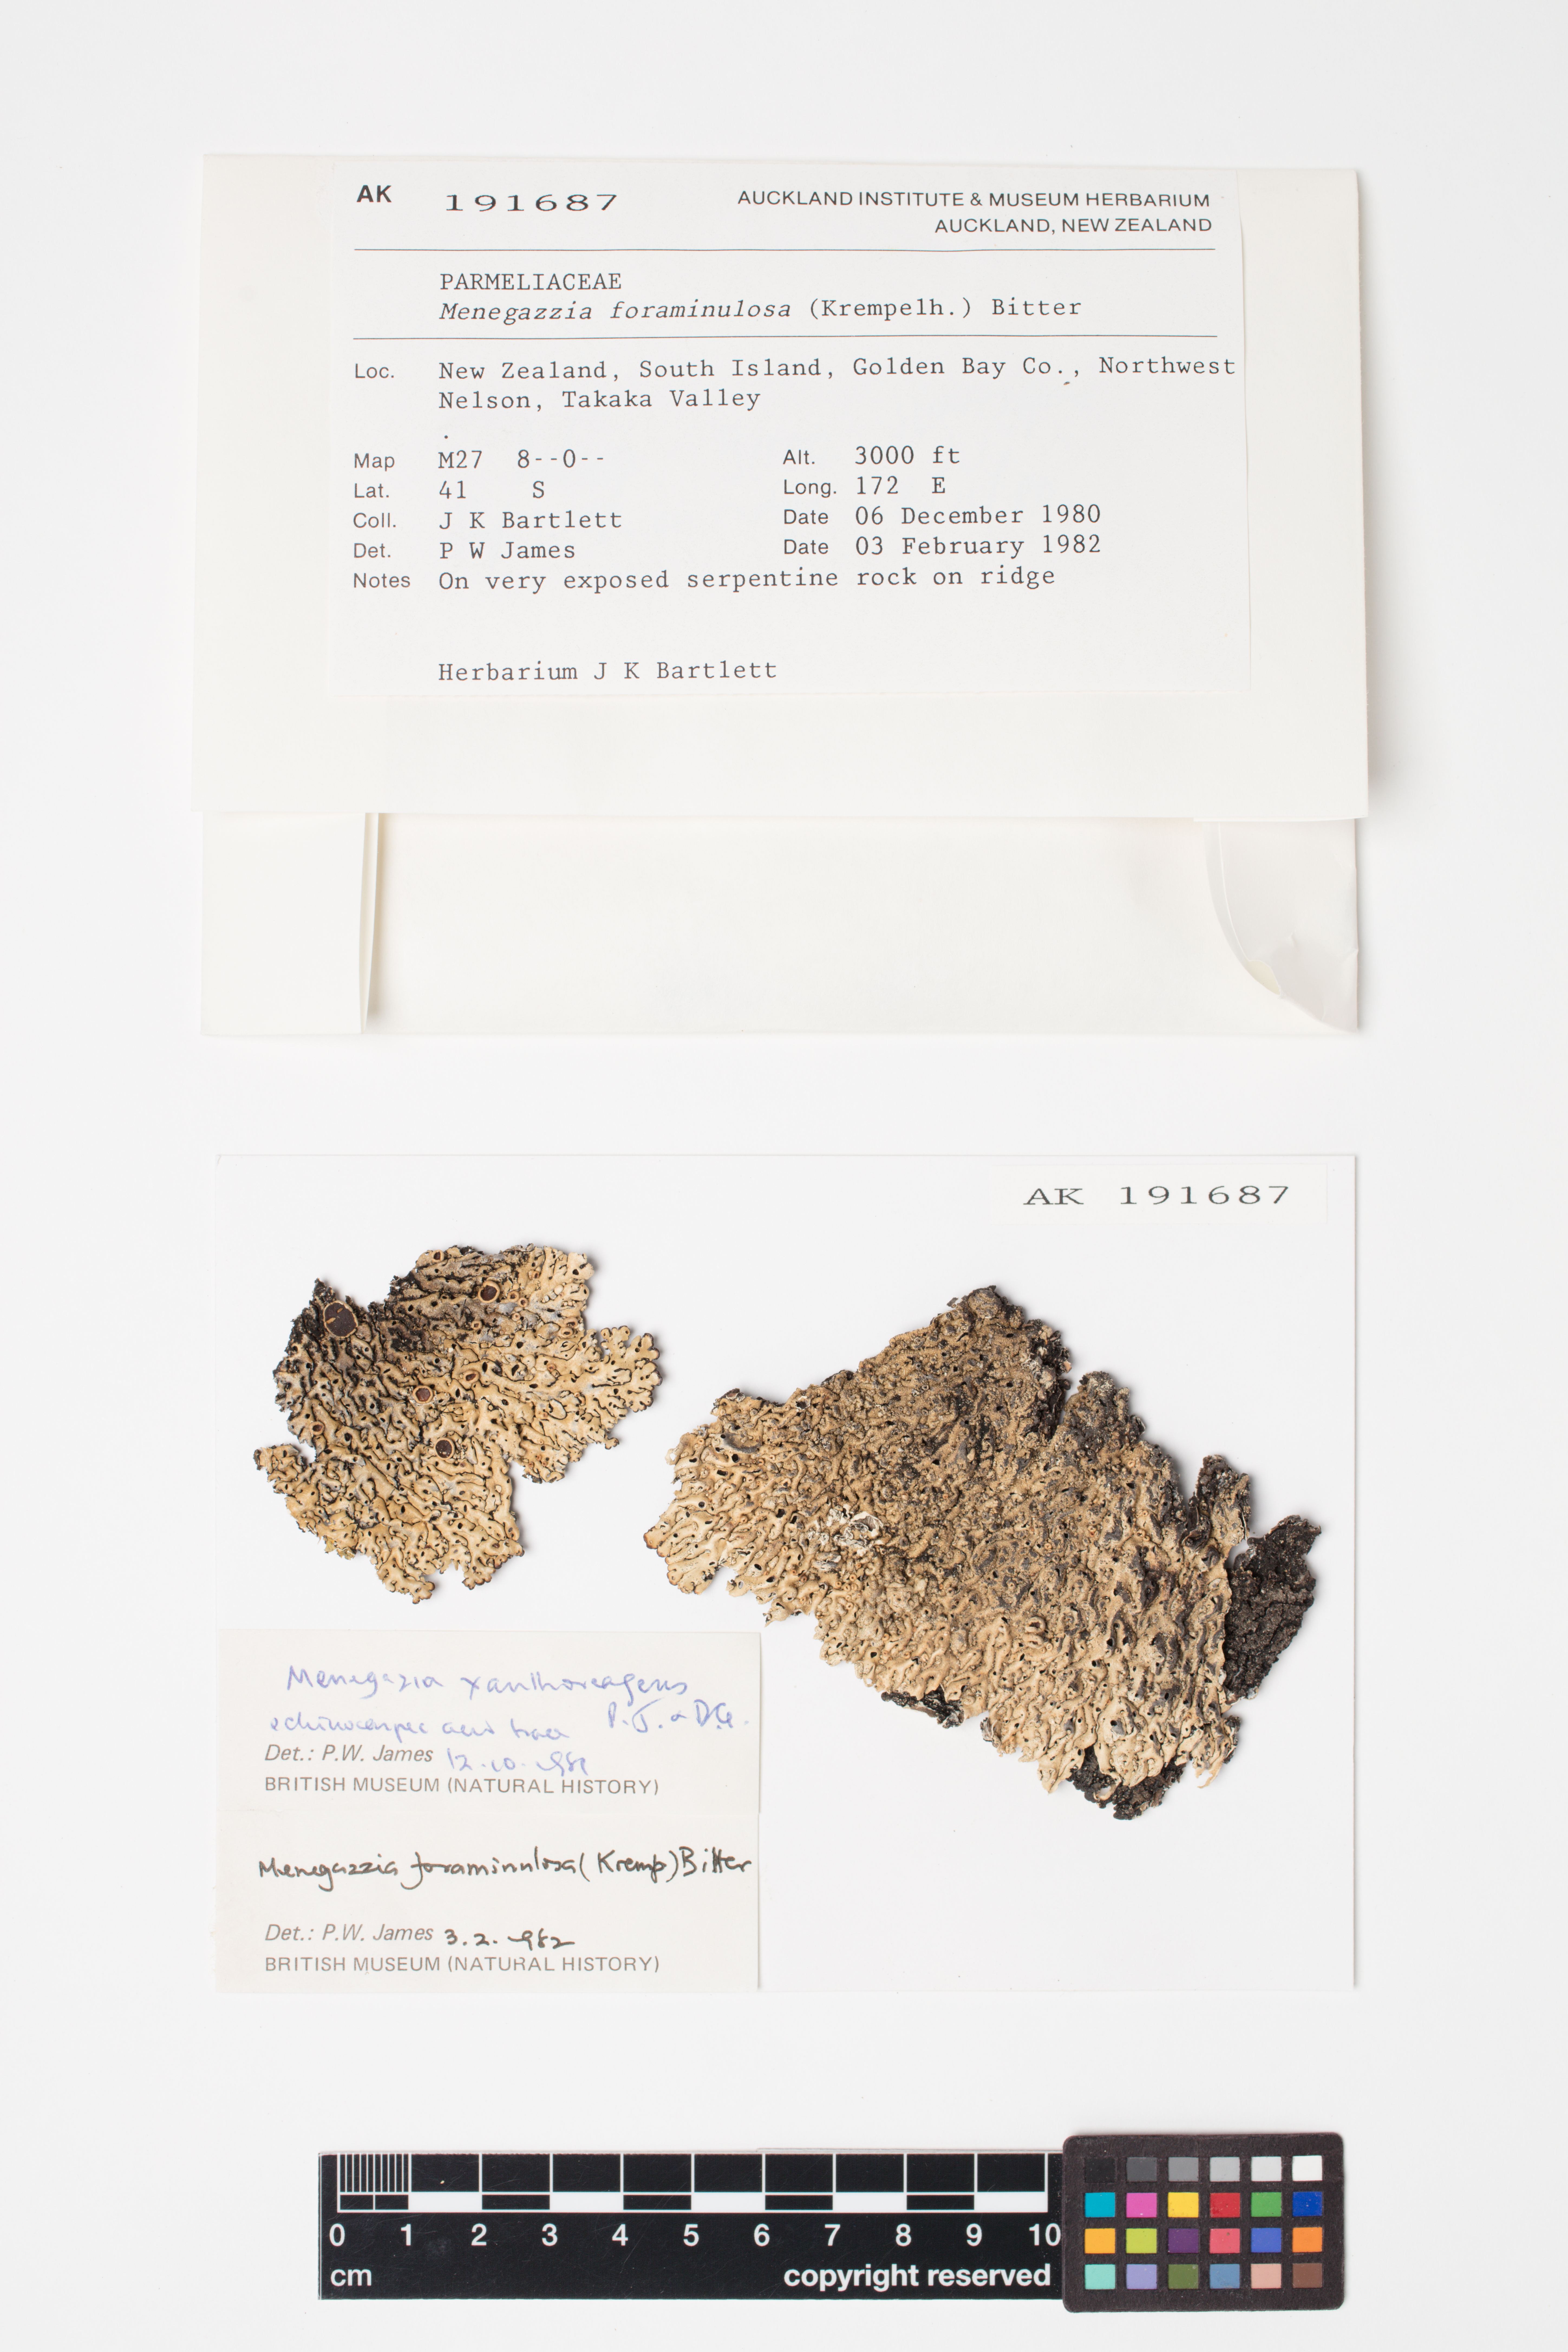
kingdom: Fungi
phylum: Ascomycota
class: Lecanoromycetes
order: Lecanorales
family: Parmeliaceae
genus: Menegazzia
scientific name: Menegazzia
